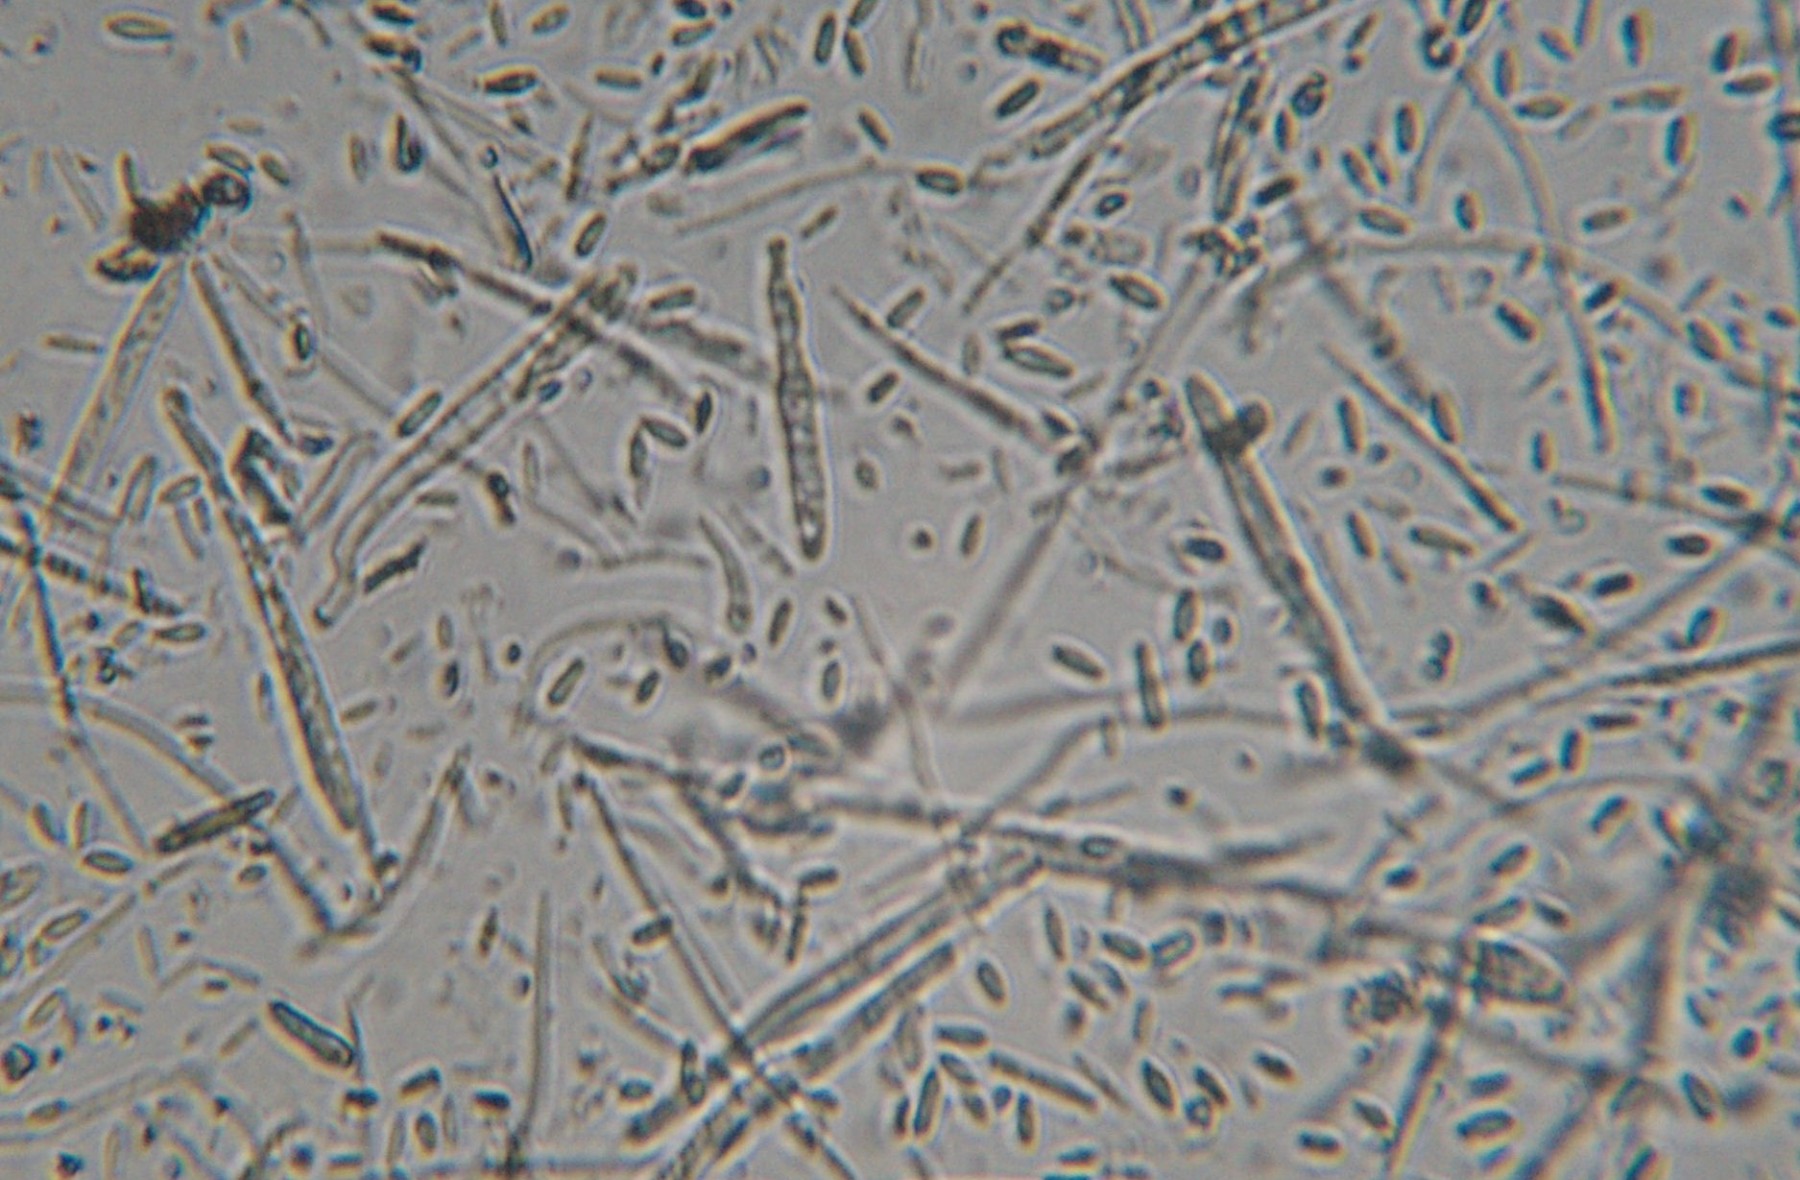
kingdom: Fungi
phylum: Ascomycota
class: Leotiomycetes
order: Helotiales
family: Lachnaceae
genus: Lachnellula
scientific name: Lachnellula
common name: frynseskive
